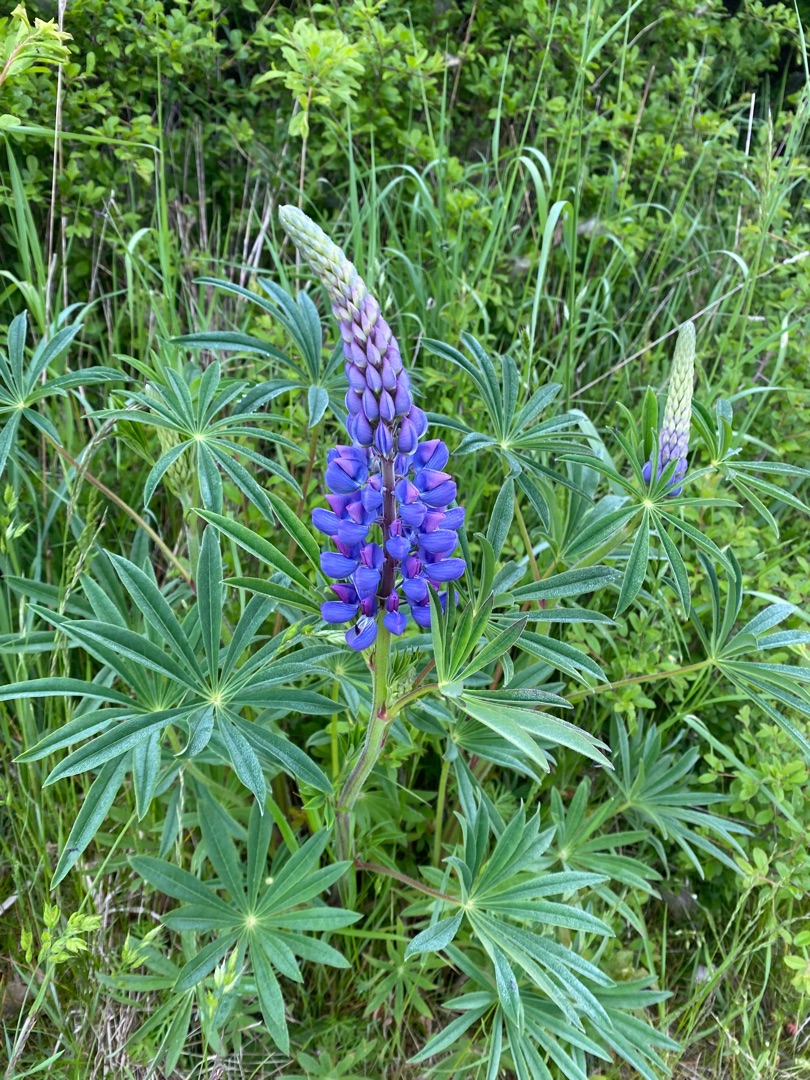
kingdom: Plantae
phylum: Tracheophyta
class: Magnoliopsida
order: Fabales
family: Fabaceae
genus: Lupinus
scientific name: Lupinus polyphyllus
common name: Mangebladet lupin
